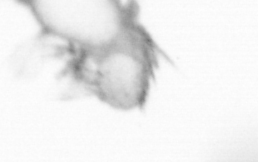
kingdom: Animalia
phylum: Annelida
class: Polychaeta
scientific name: Polychaeta
